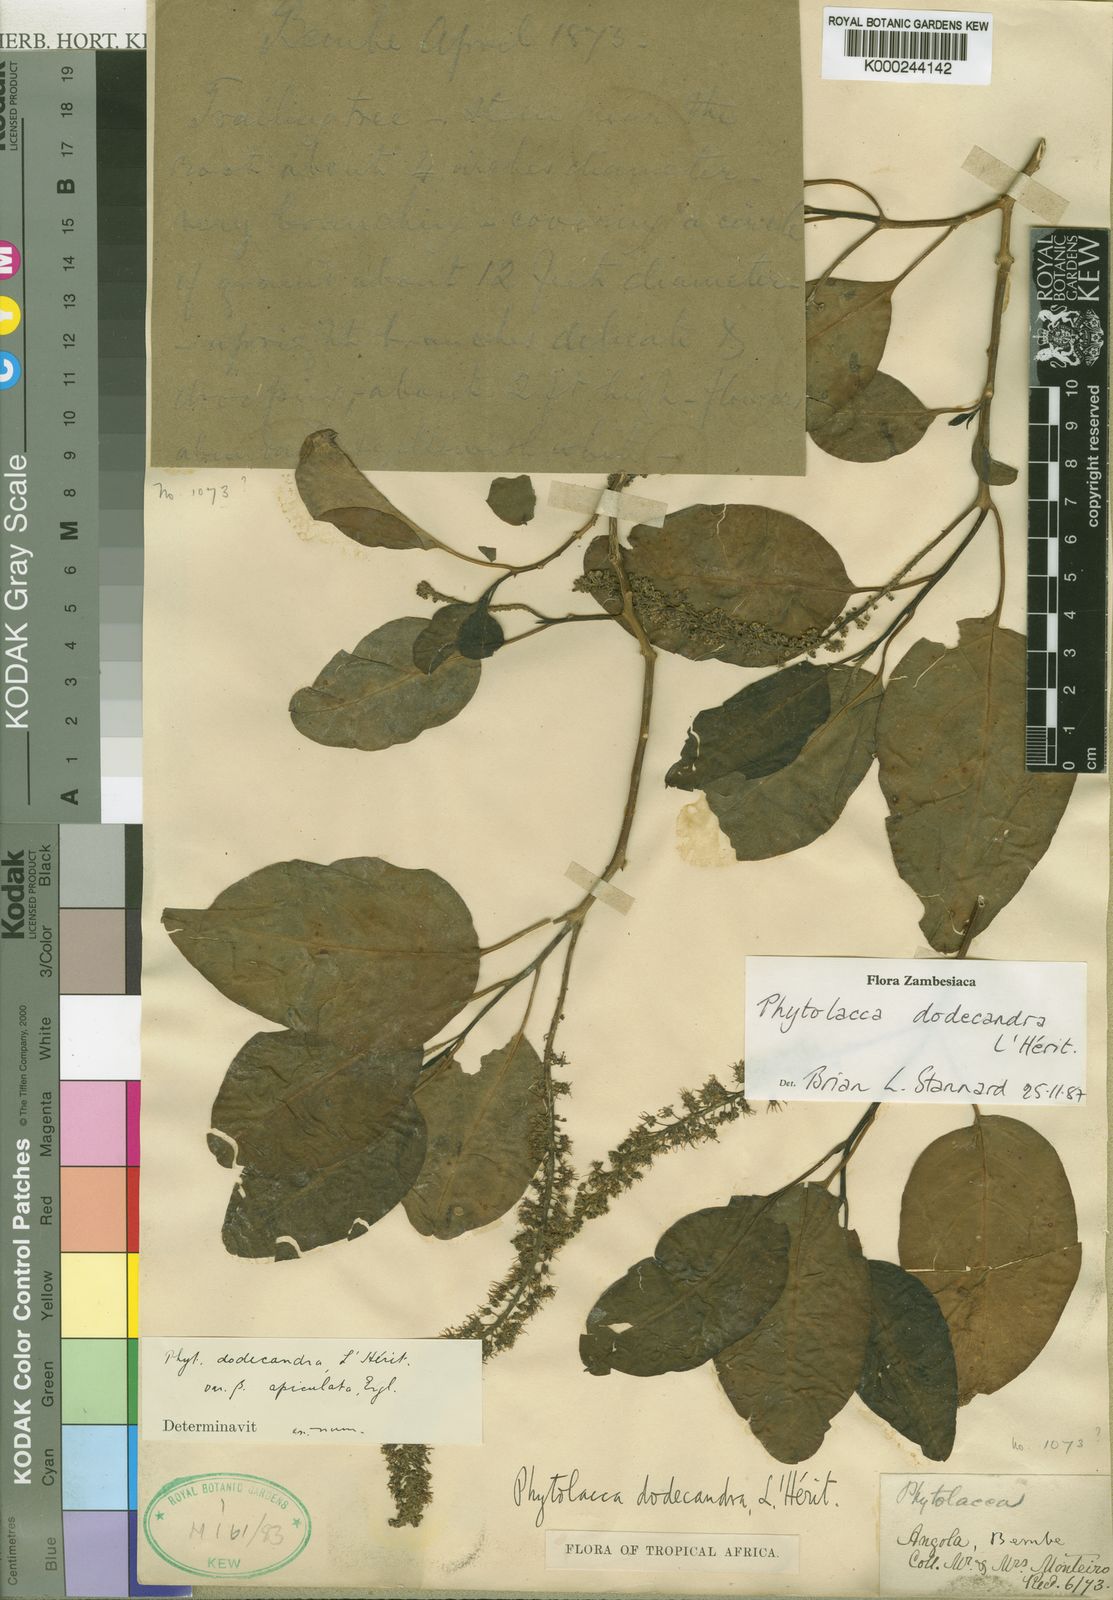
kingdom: Plantae
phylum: Tracheophyta
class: Magnoliopsida
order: Caryophyllales
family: Phytolaccaceae
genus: Phytolacca
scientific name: Phytolacca
